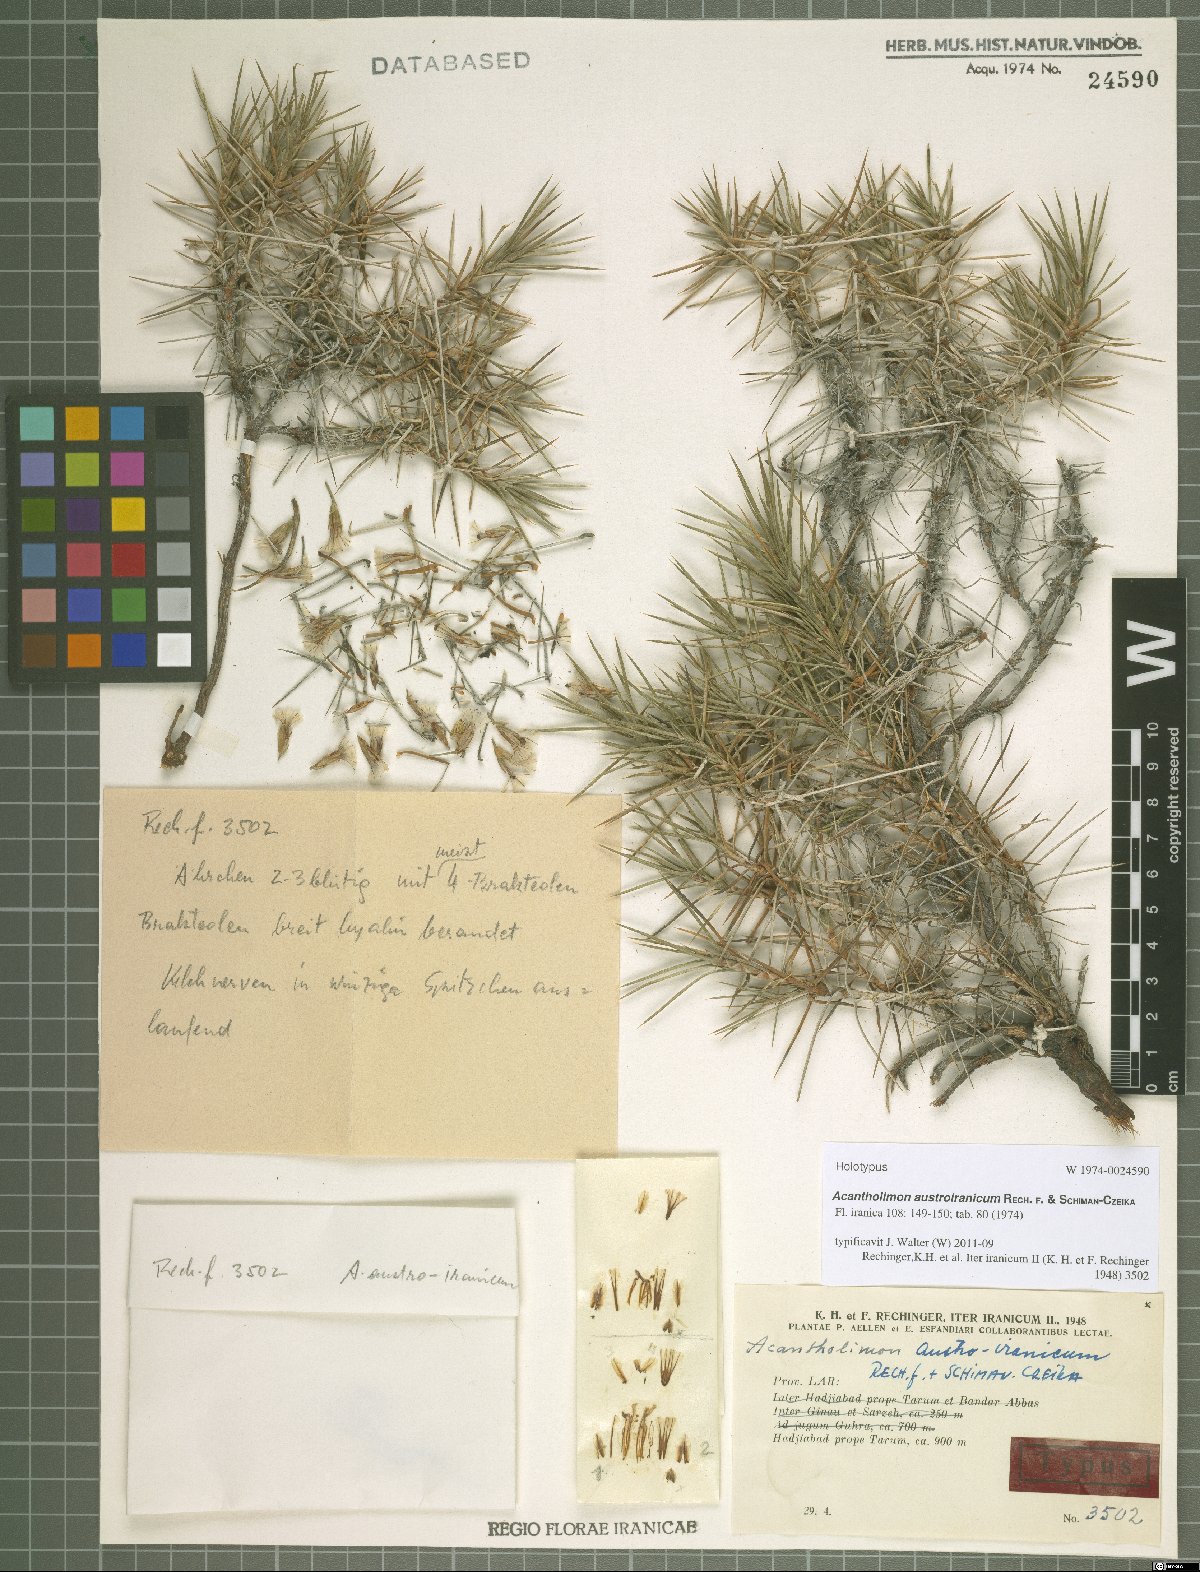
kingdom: Plantae
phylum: Tracheophyta
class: Magnoliopsida
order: Caryophyllales
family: Plumbaginaceae
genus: Acantholimon
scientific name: Acantholimon austroiranicum
